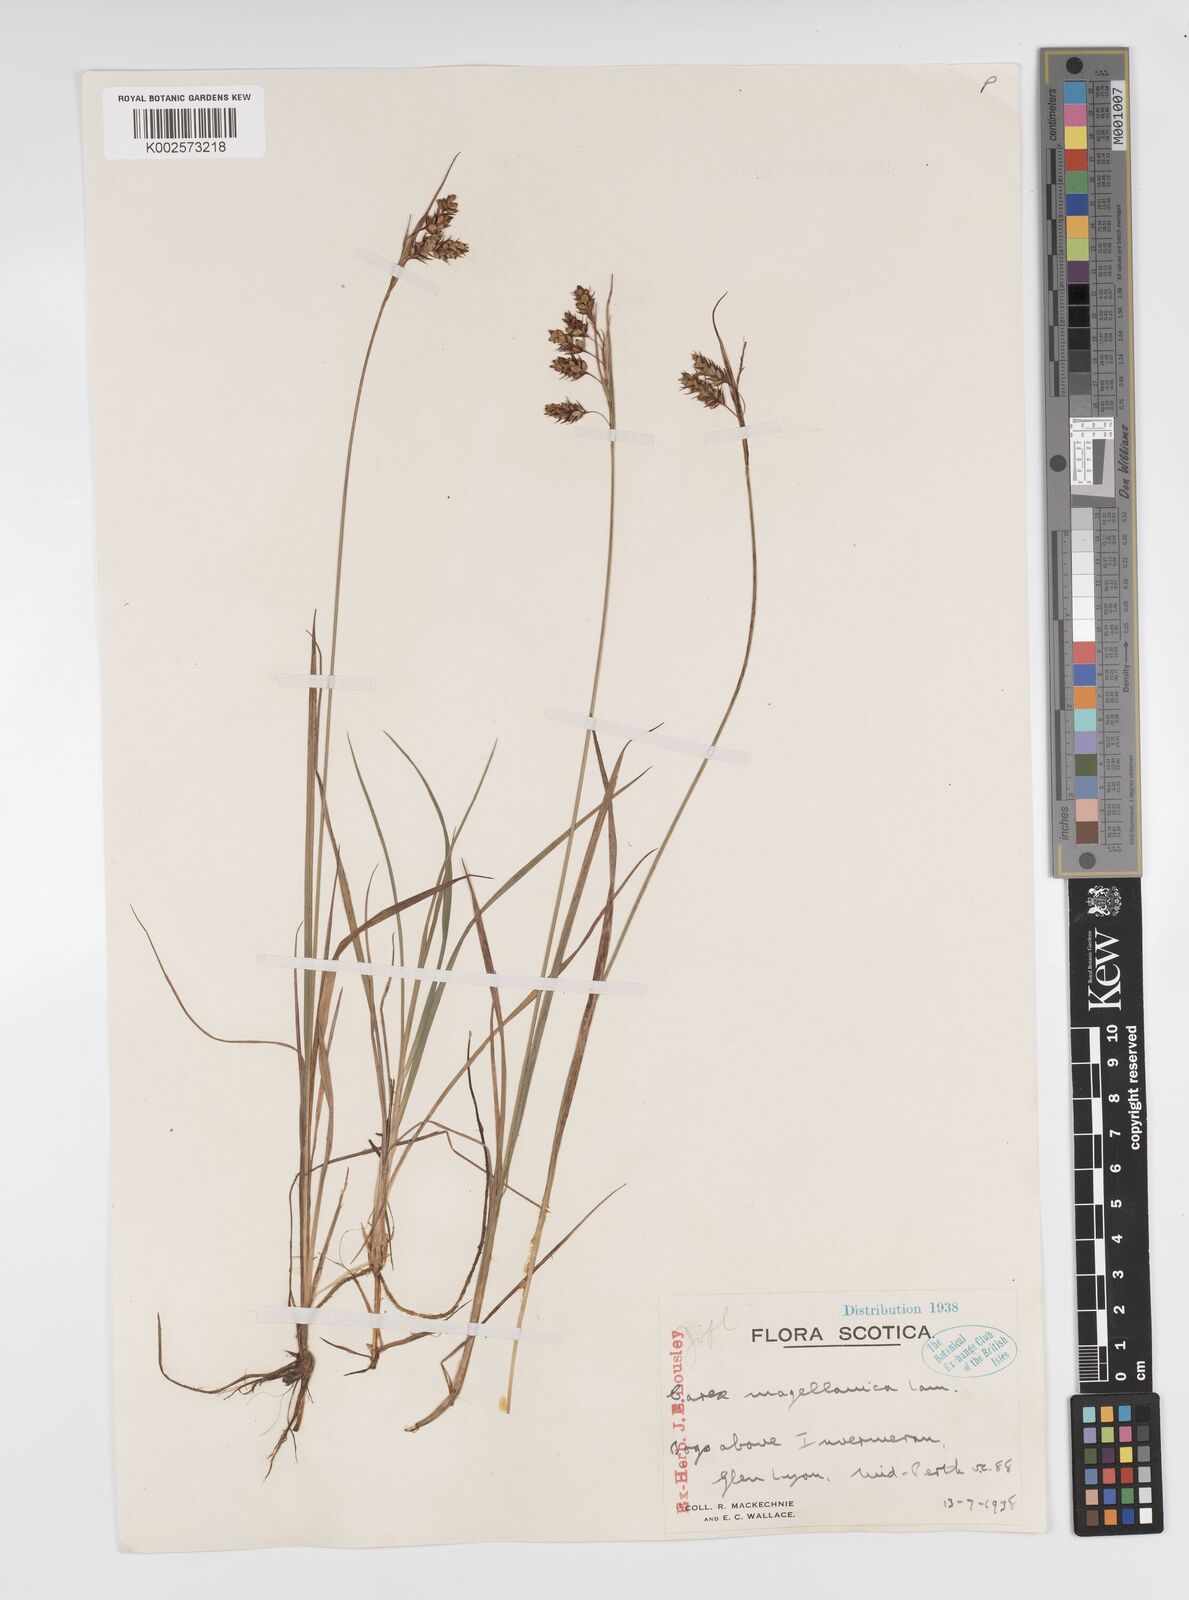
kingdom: Plantae
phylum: Tracheophyta
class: Liliopsida
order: Poales
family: Cyperaceae
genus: Carex
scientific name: Carex magellanica
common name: Bog sedge
